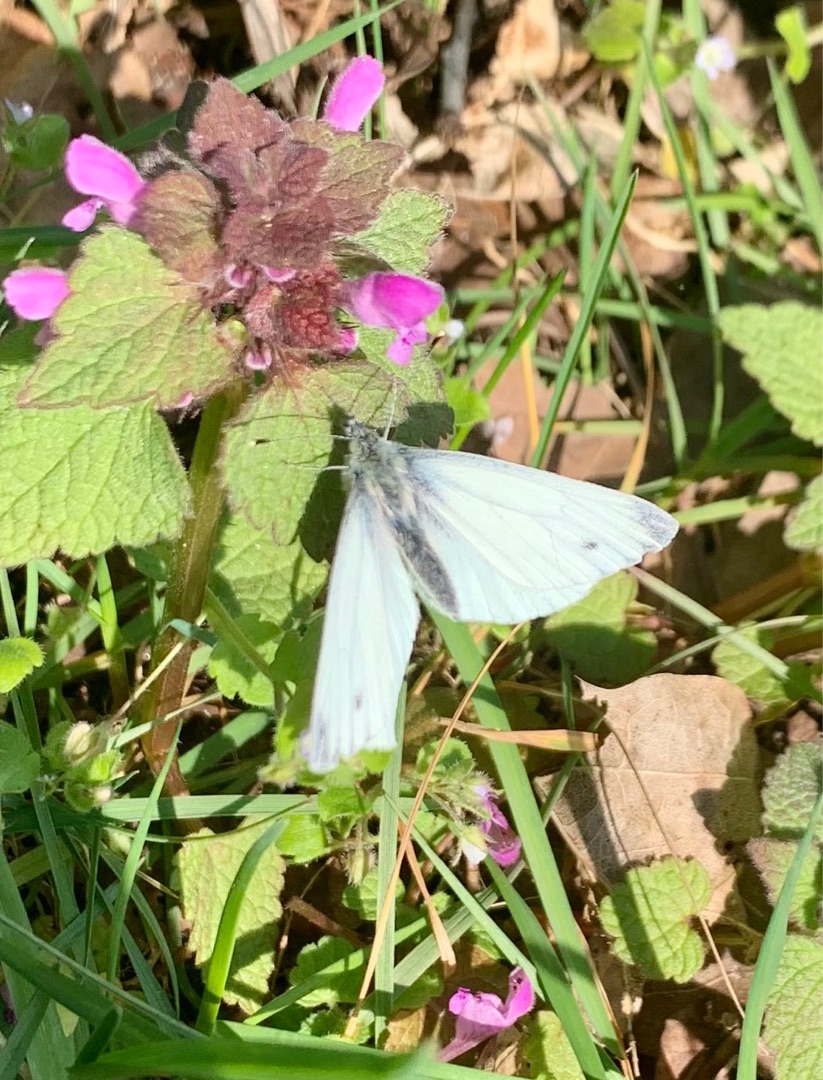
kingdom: Animalia
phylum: Arthropoda
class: Insecta
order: Lepidoptera
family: Pieridae
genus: Pieris
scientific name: Pieris napi
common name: Grønåret kålsommerfugl
